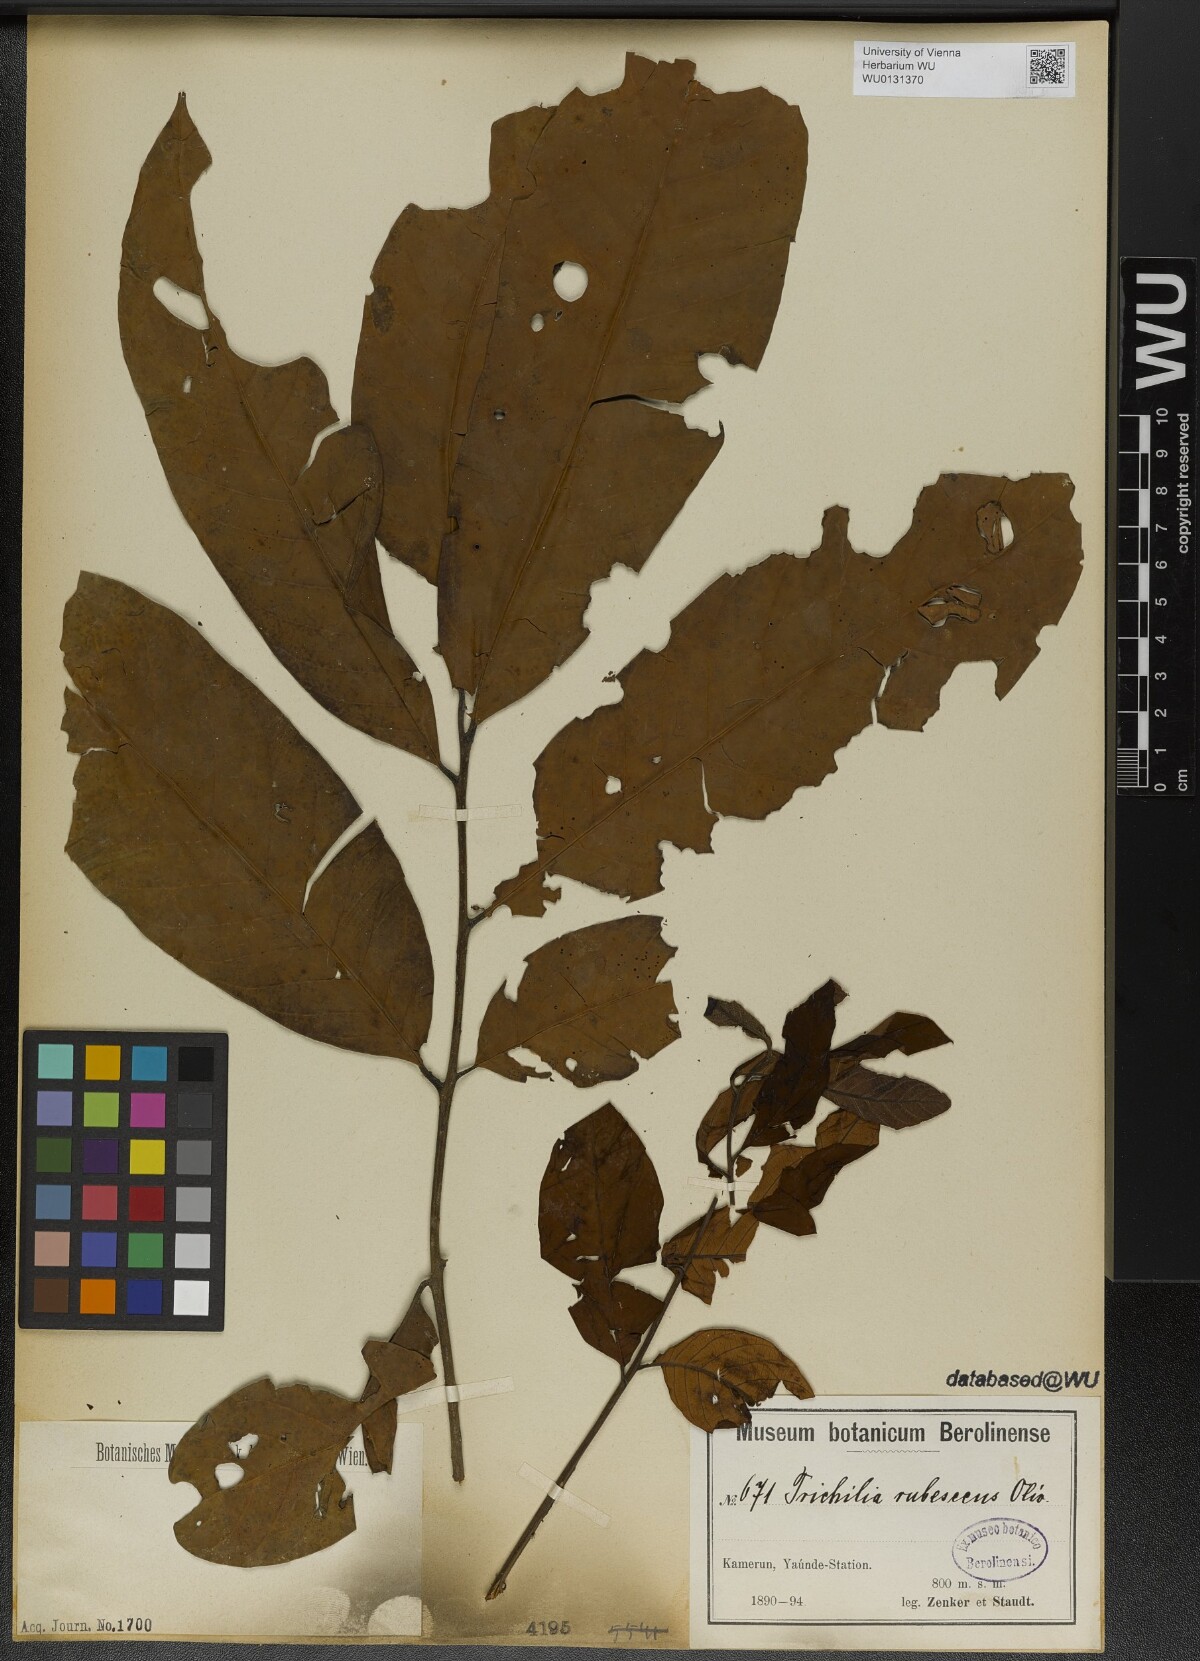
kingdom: Plantae
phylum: Tracheophyta
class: Magnoliopsida
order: Sapindales
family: Meliaceae
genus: Trichilia
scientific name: Trichilia rubescens
